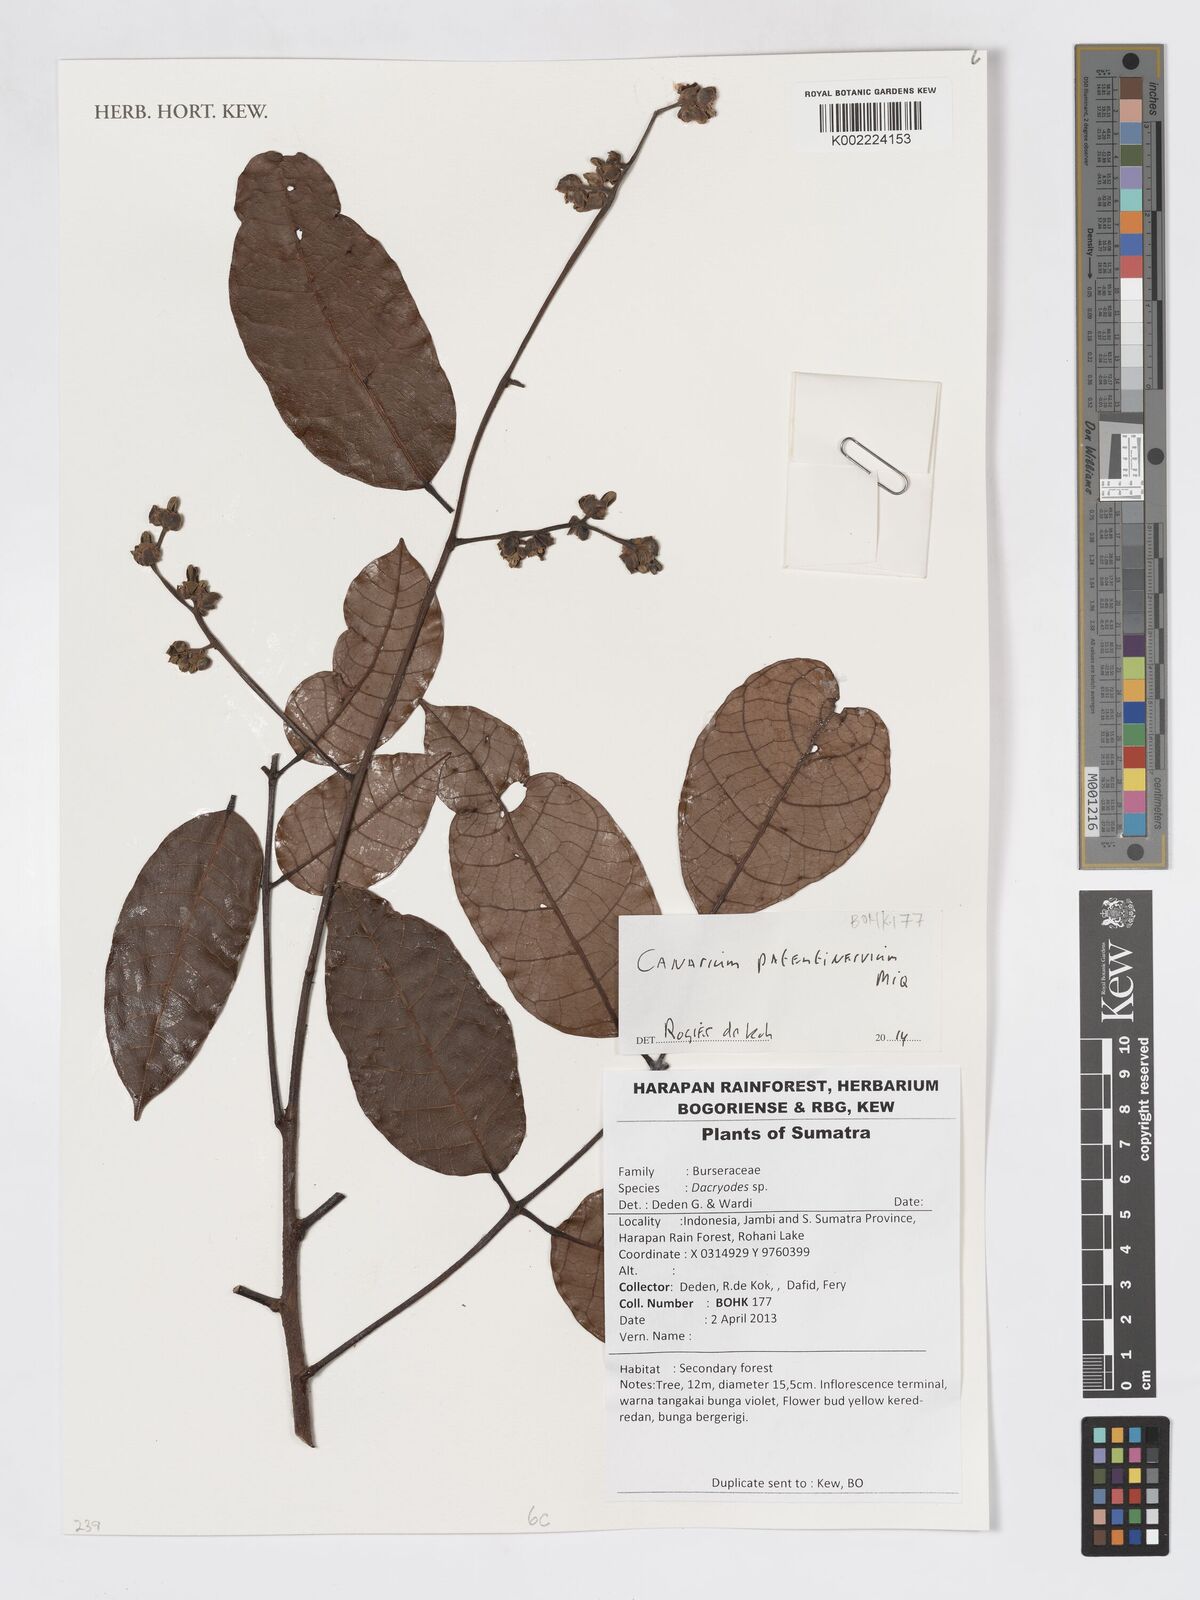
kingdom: Plantae
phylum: Tracheophyta
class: Magnoliopsida
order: Sapindales
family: Burseraceae
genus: Canarium
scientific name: Canarium patentinervium
